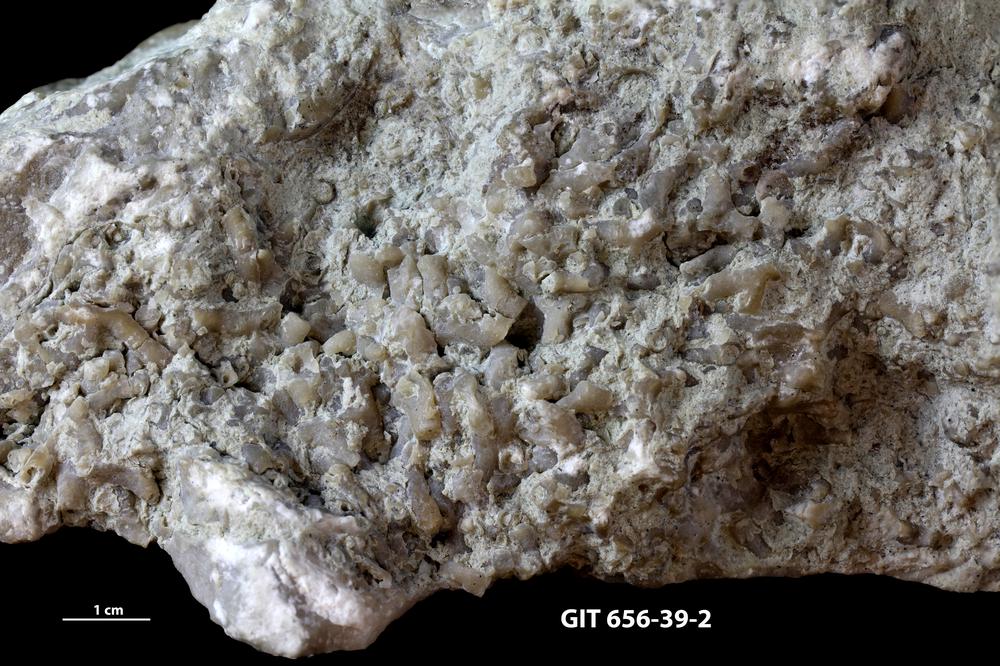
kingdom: Animalia
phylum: Cnidaria
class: Anthozoa
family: Auloporidae
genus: Aulopora
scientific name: Aulopora
